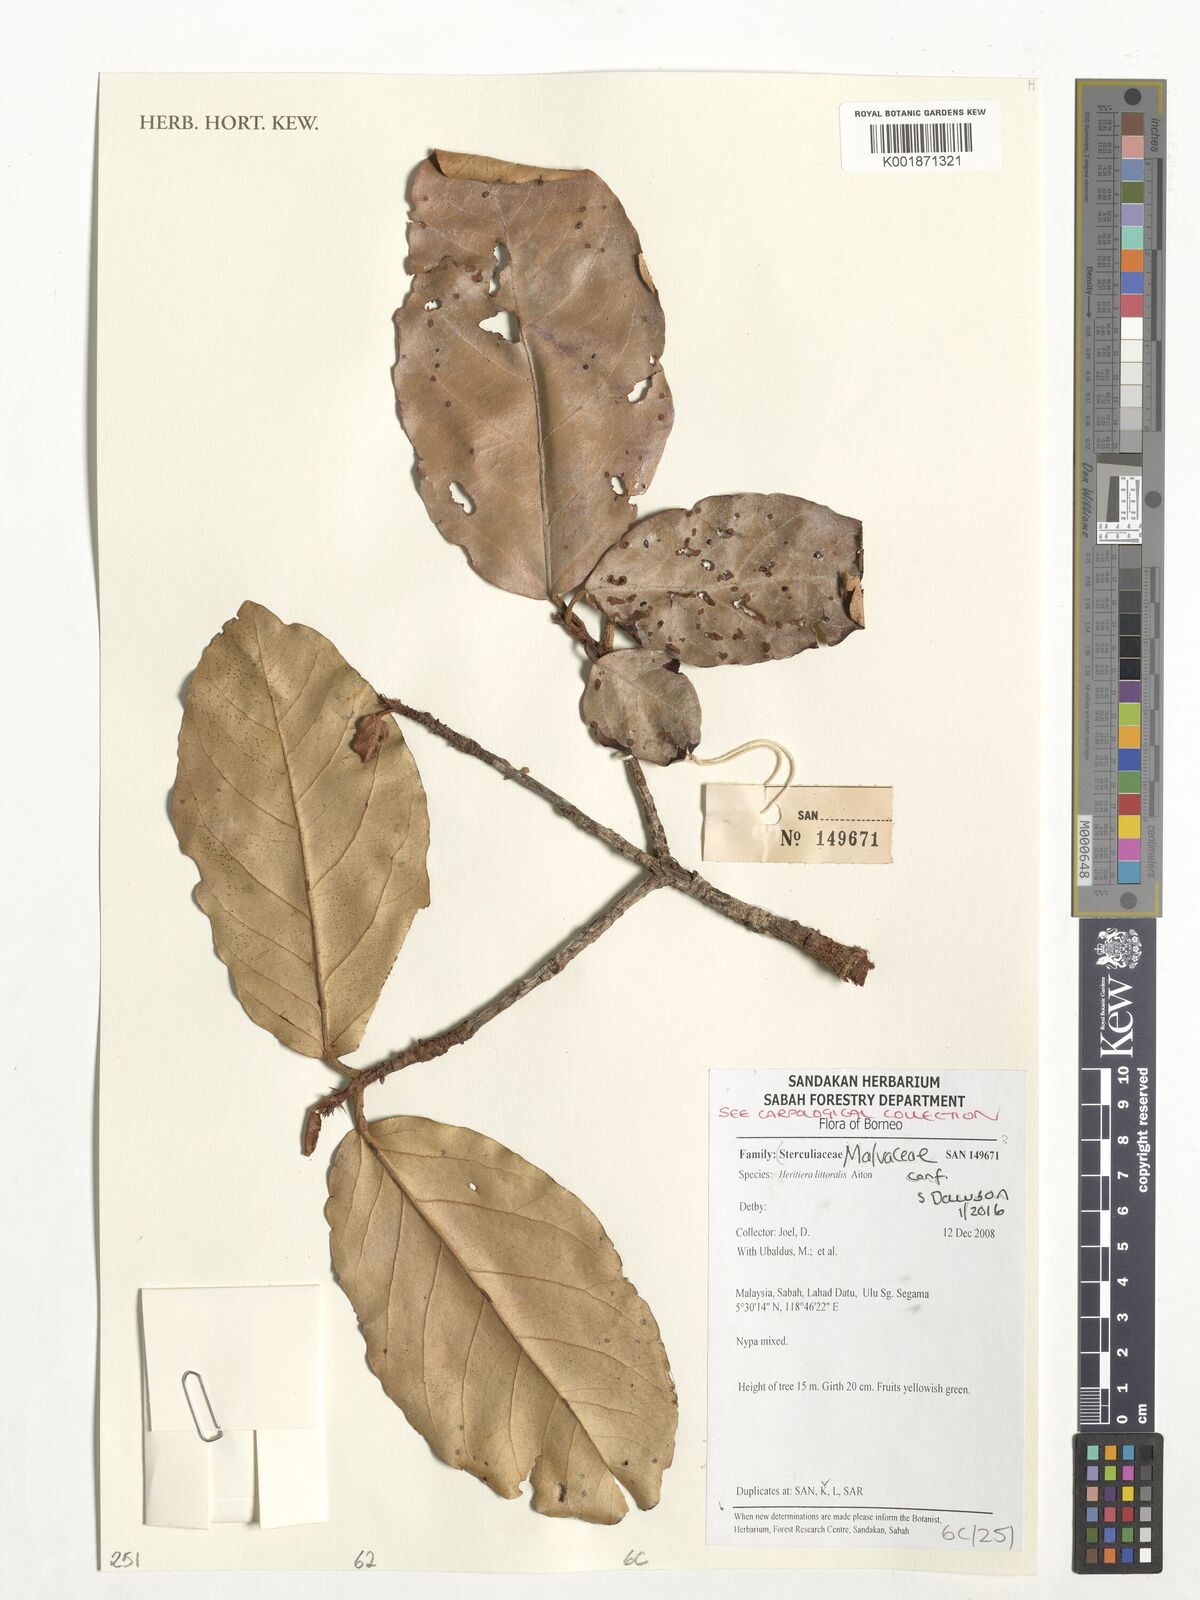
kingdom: Plantae
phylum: Tracheophyta
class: Magnoliopsida
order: Malvales
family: Malvaceae
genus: Heritiera
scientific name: Heritiera littoralis
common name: Looking-glass mangrove
